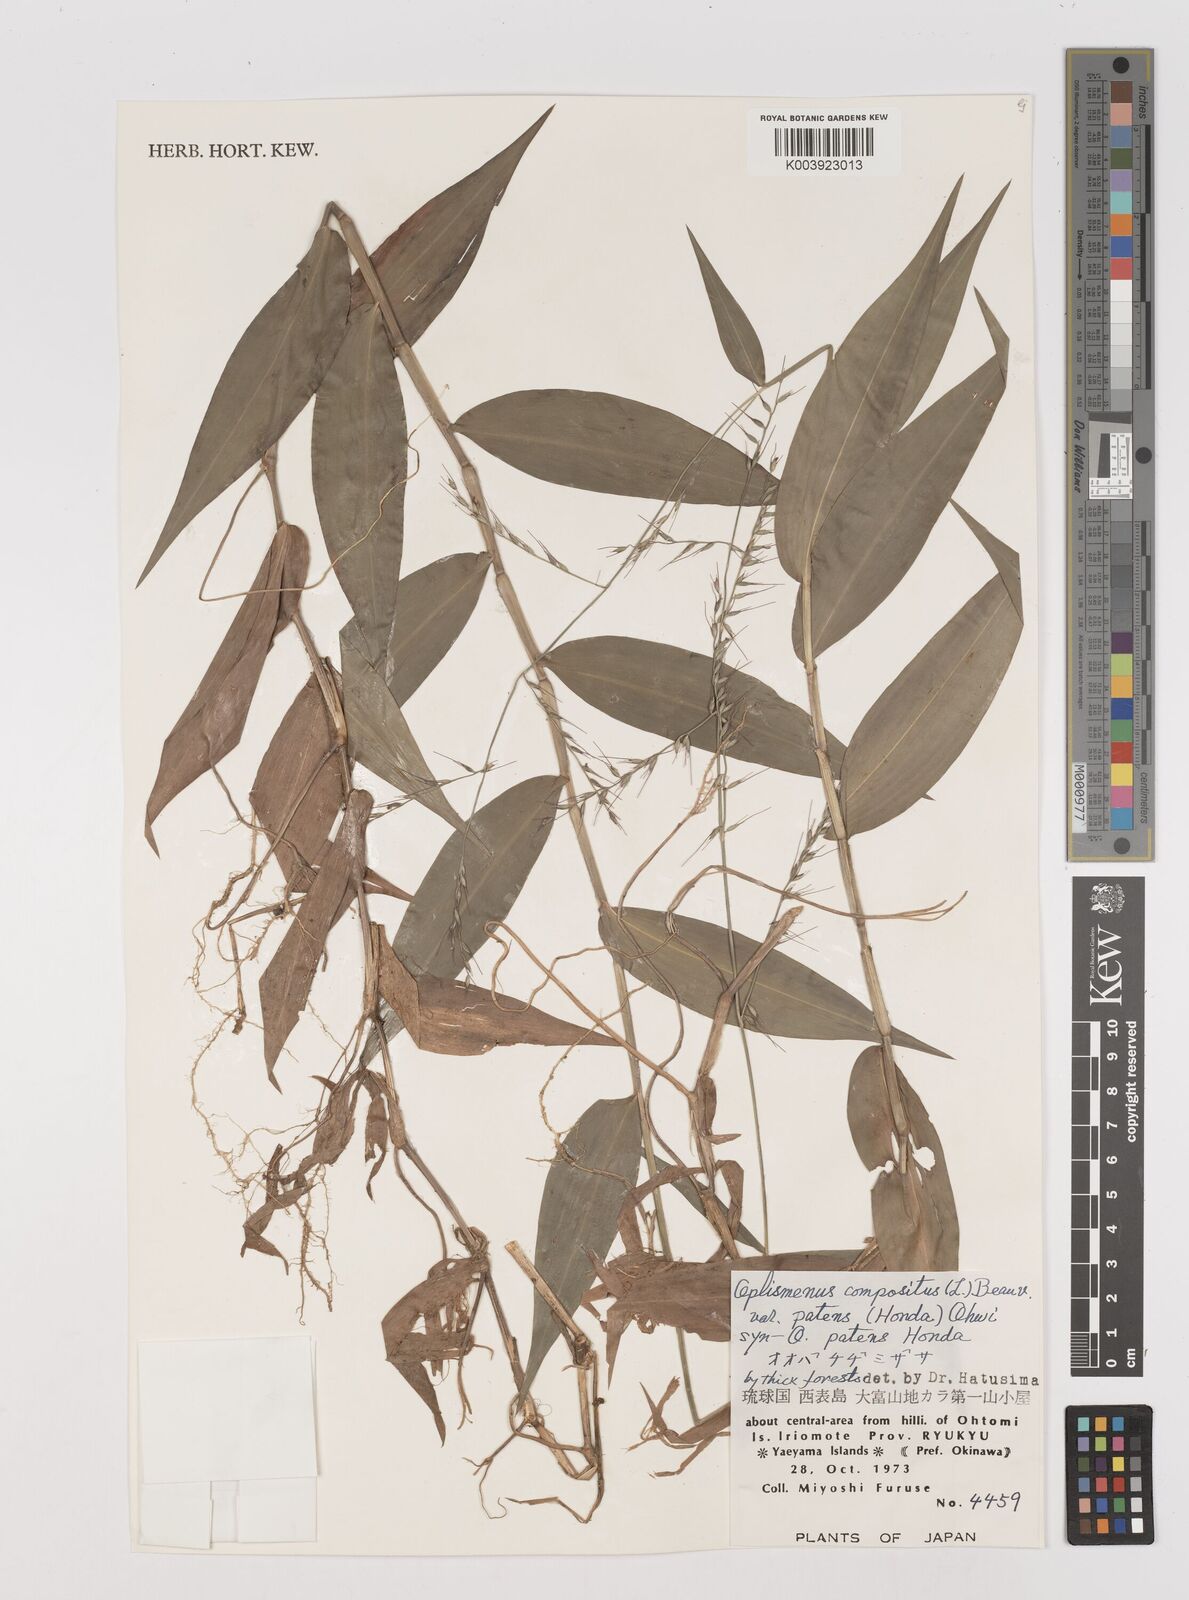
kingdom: Plantae
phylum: Tracheophyta
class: Liliopsida
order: Poales
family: Poaceae
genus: Oplismenus
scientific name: Oplismenus compositus
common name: Running mountain grass
